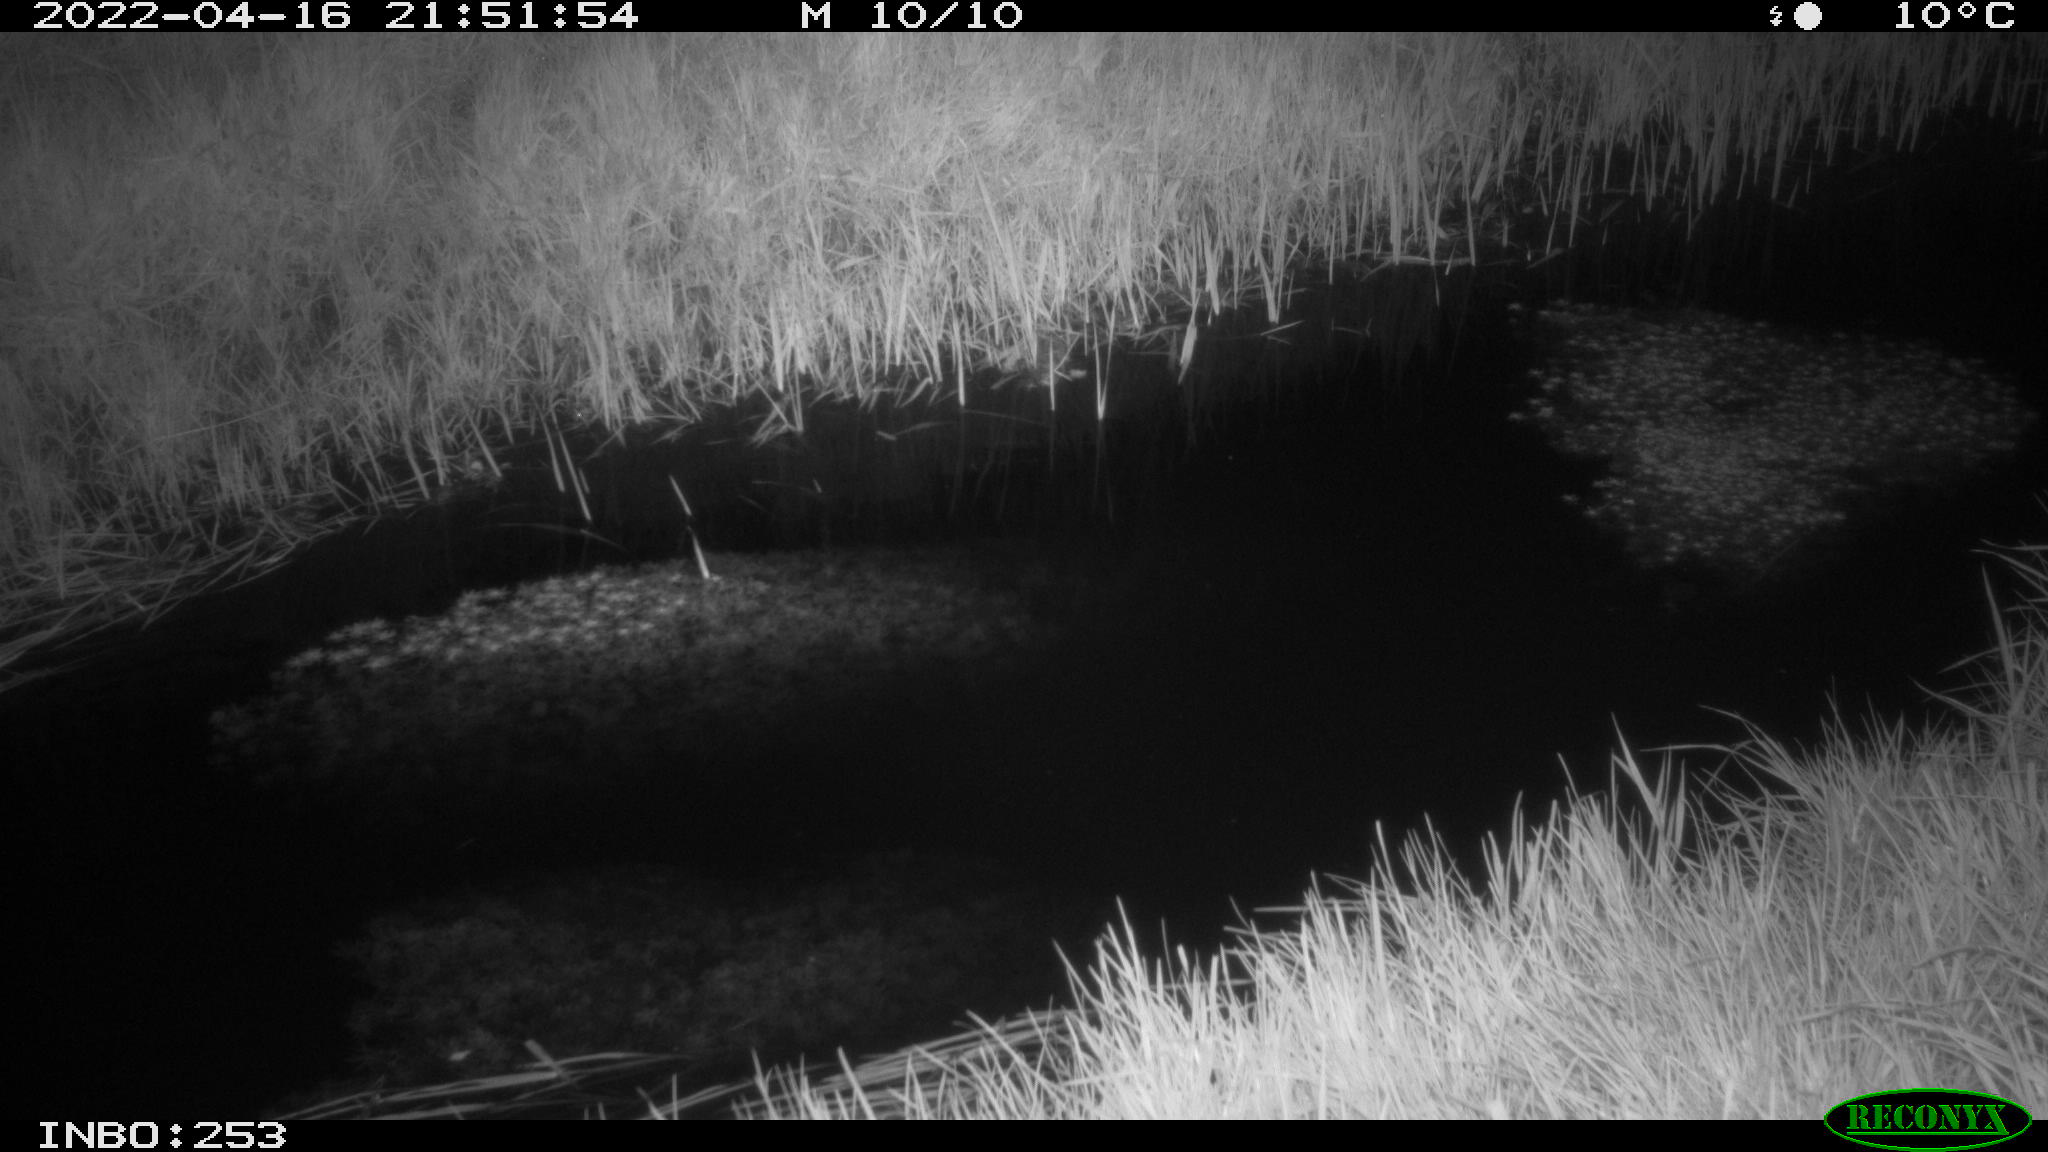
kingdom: Animalia
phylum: Chordata
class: Aves
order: Anseriformes
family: Anatidae
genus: Anas
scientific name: Anas platyrhynchos
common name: Mallard
